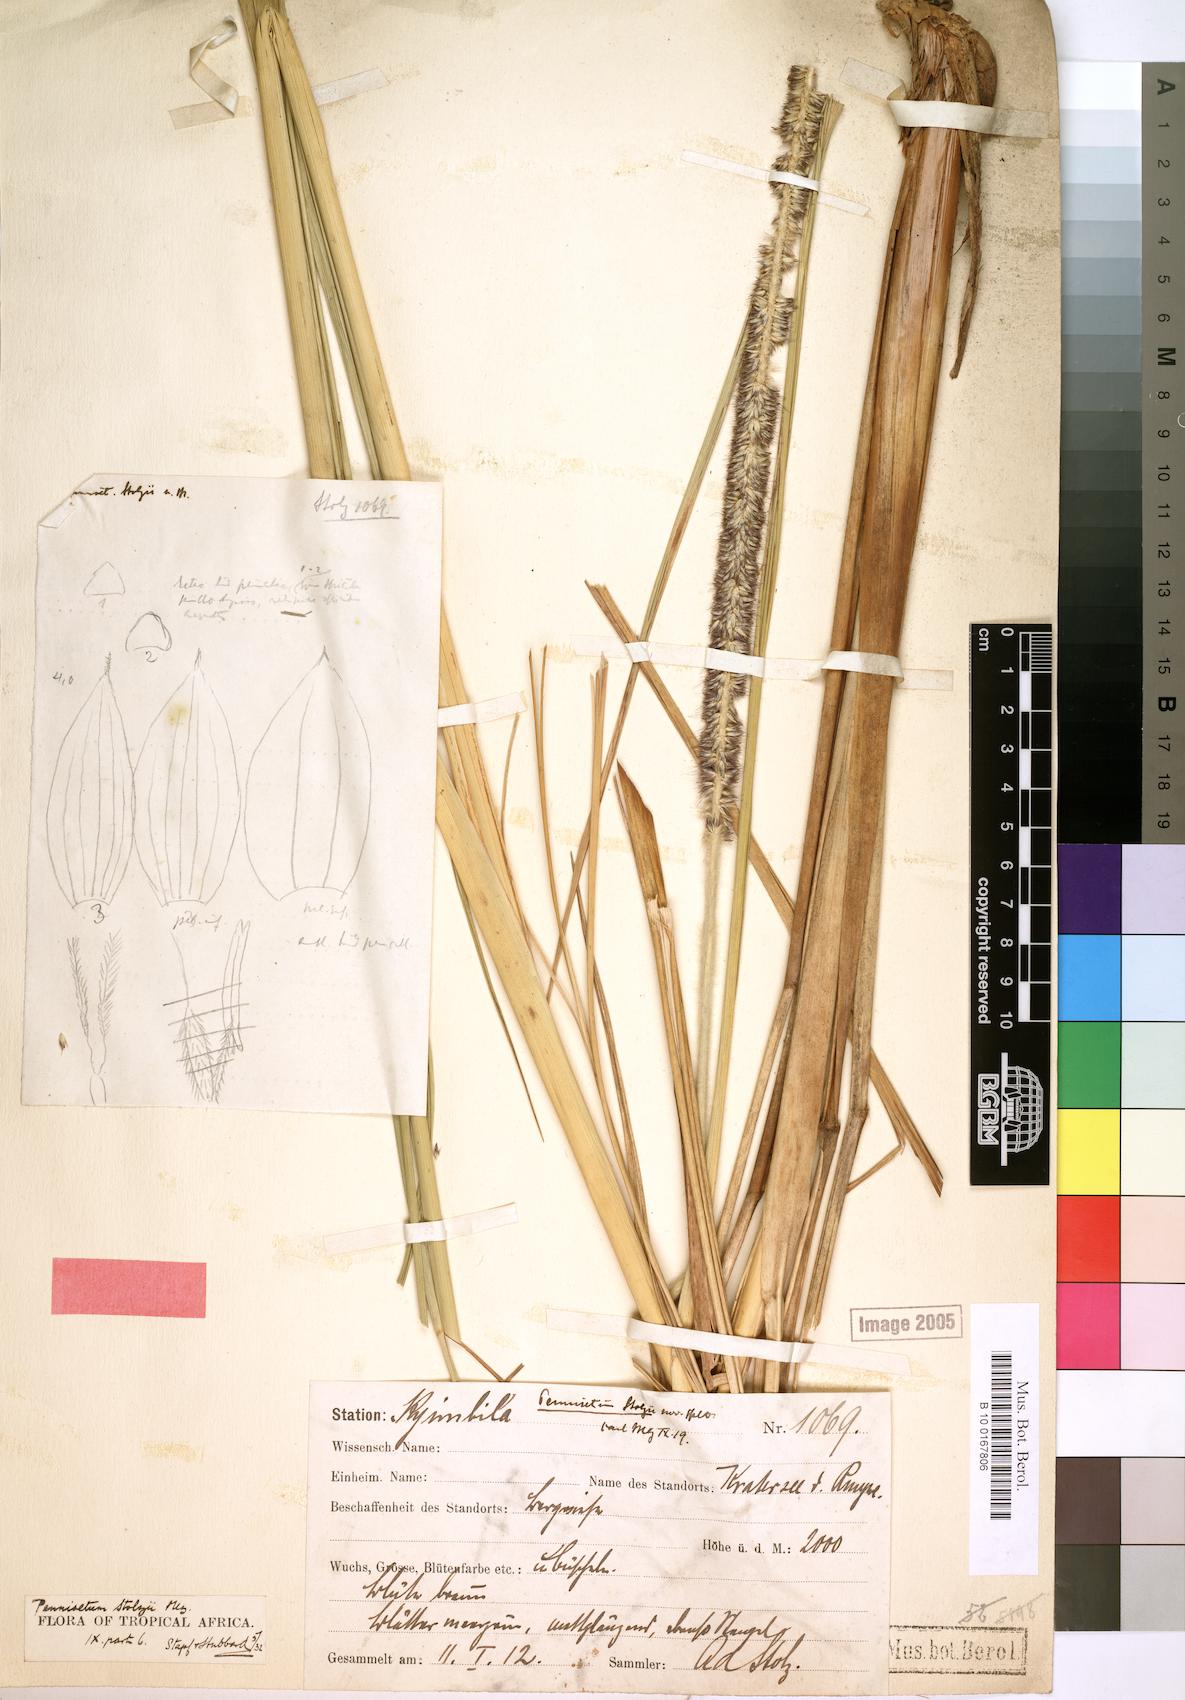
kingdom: Plantae
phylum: Tracheophyta
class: Liliopsida
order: Poales
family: Poaceae
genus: Cenchrus
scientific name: Cenchrus caudatus
